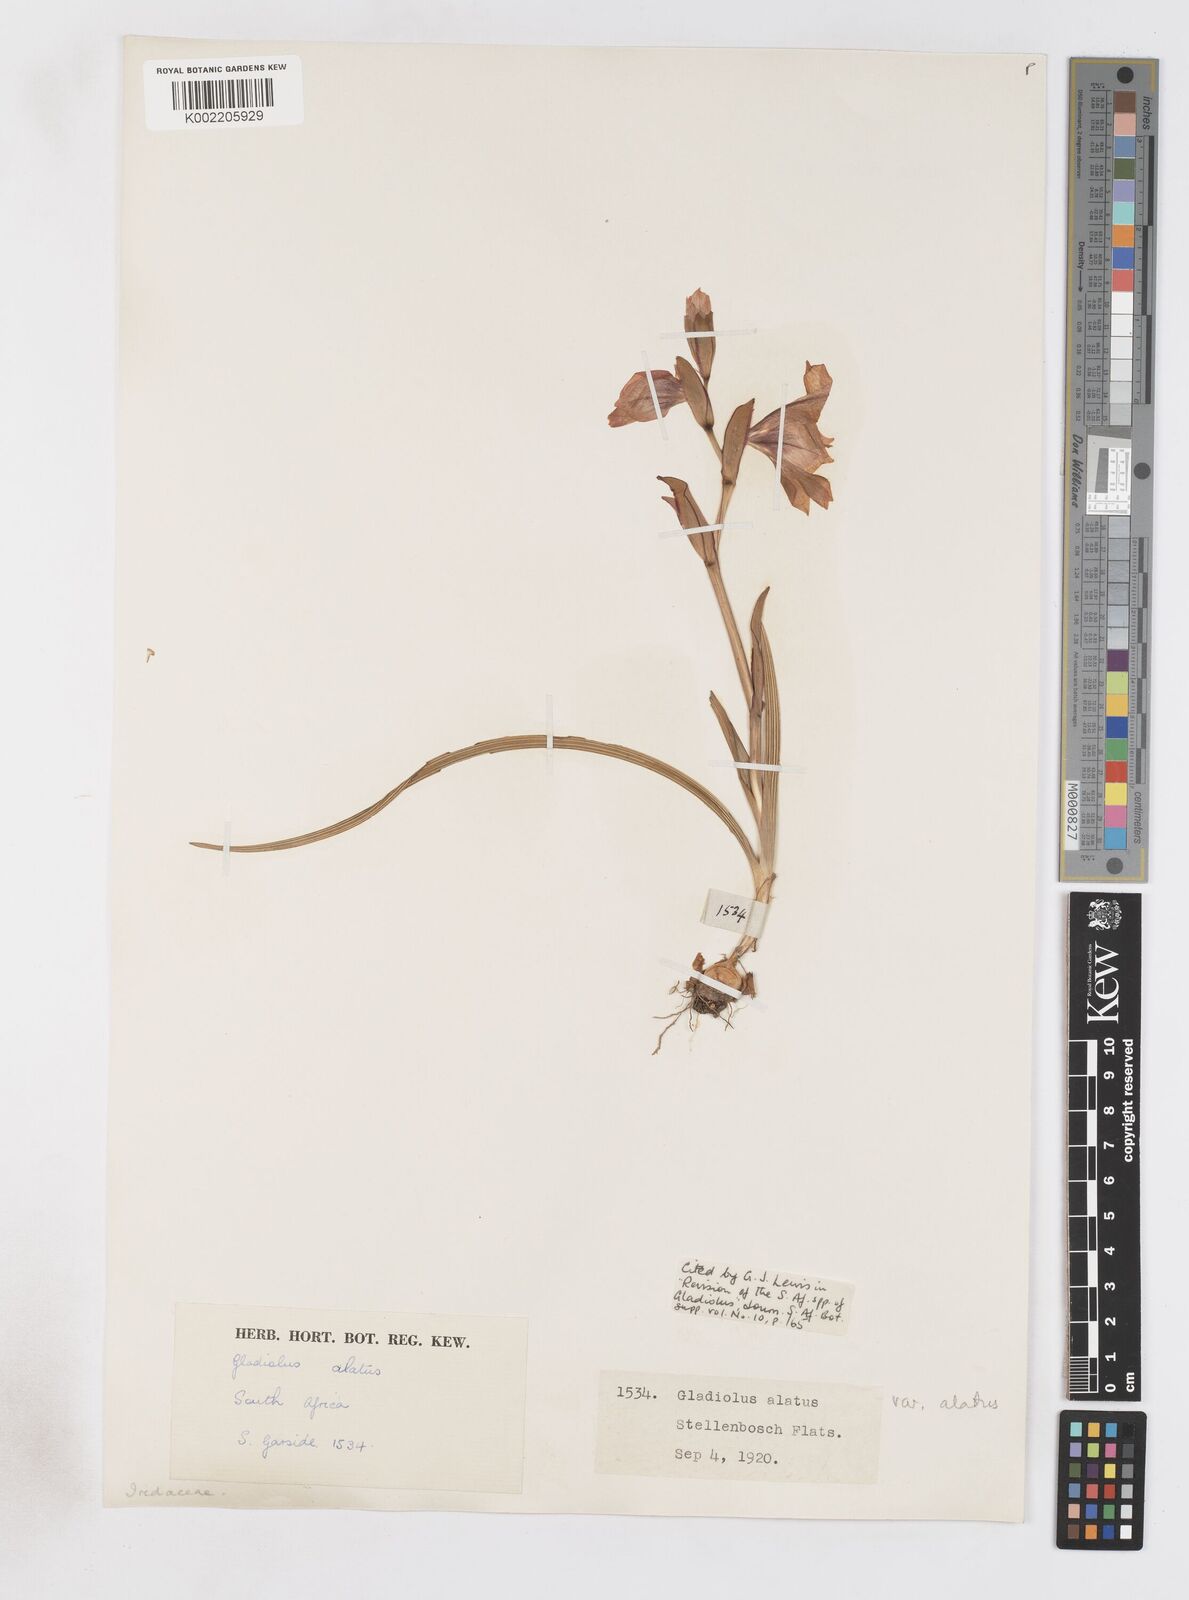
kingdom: Plantae
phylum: Tracheophyta
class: Liliopsida
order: Asparagales
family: Iridaceae
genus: Gladiolus
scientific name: Gladiolus alatus
